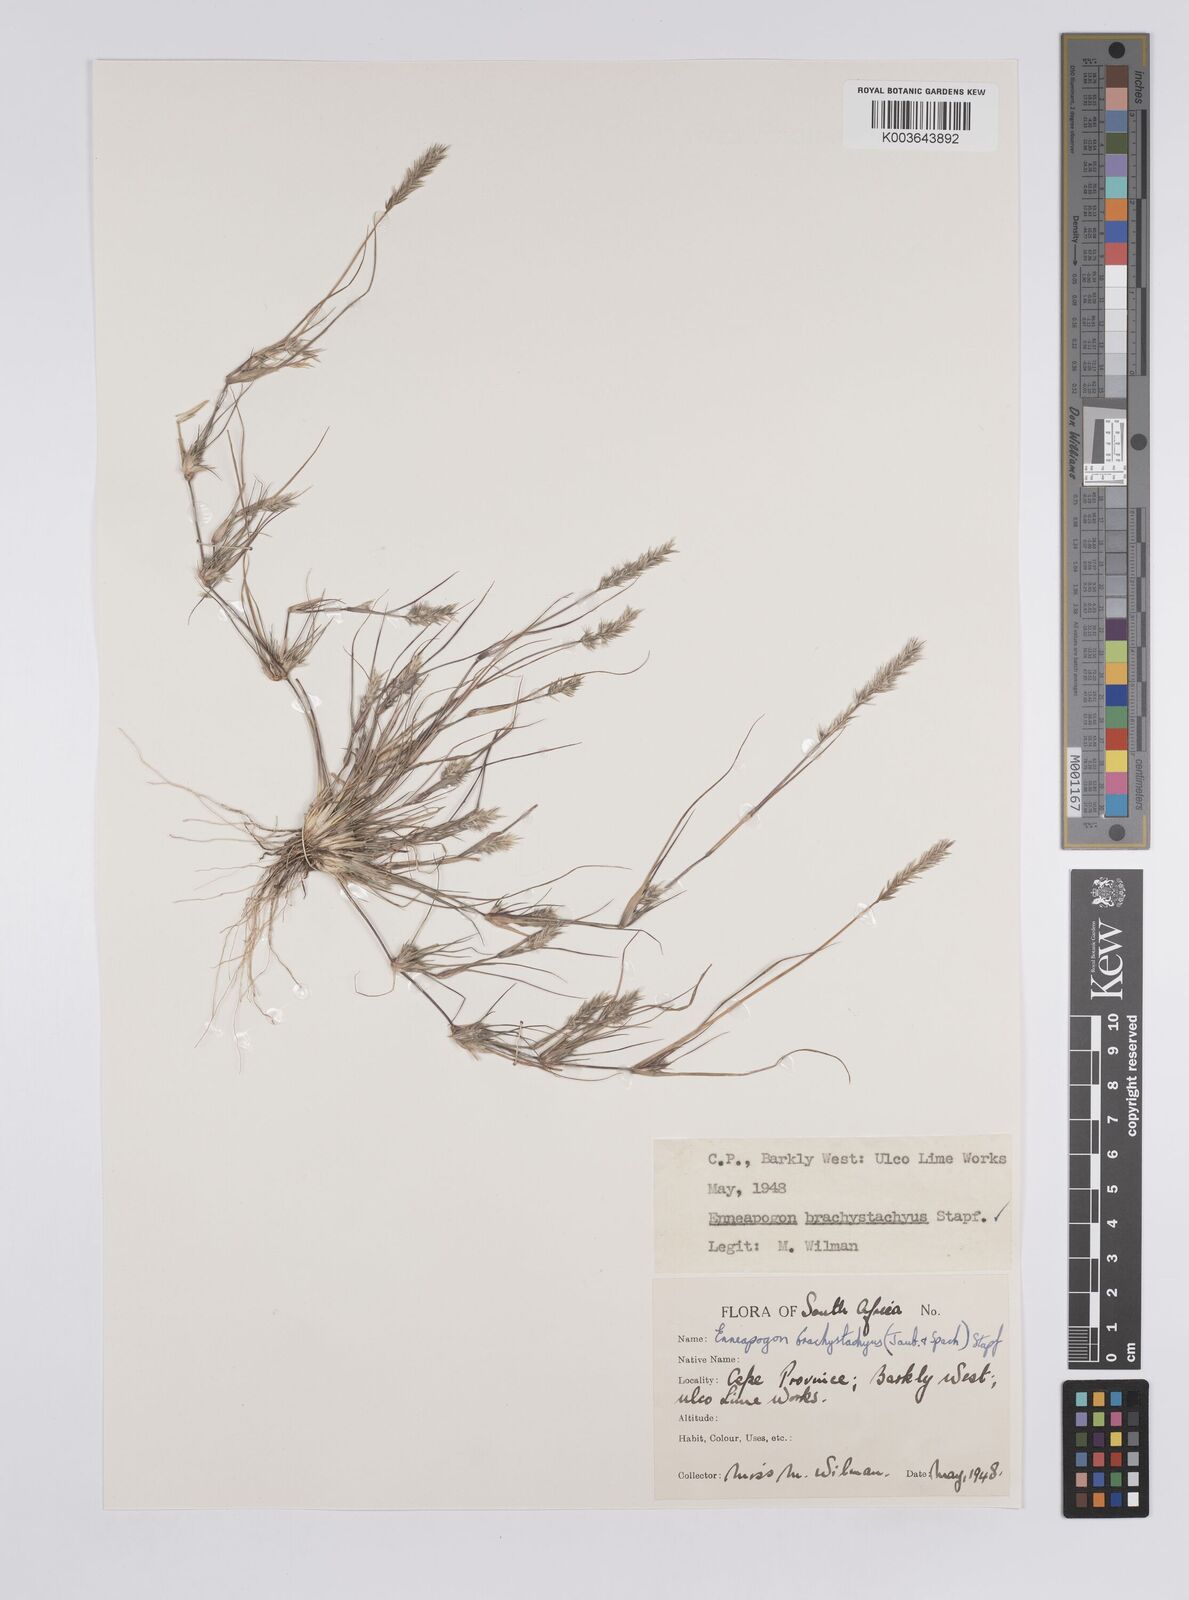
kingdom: Plantae
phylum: Tracheophyta
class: Liliopsida
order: Poales
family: Poaceae
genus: Enneapogon
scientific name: Enneapogon desvauxii
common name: Feather pappus grass
